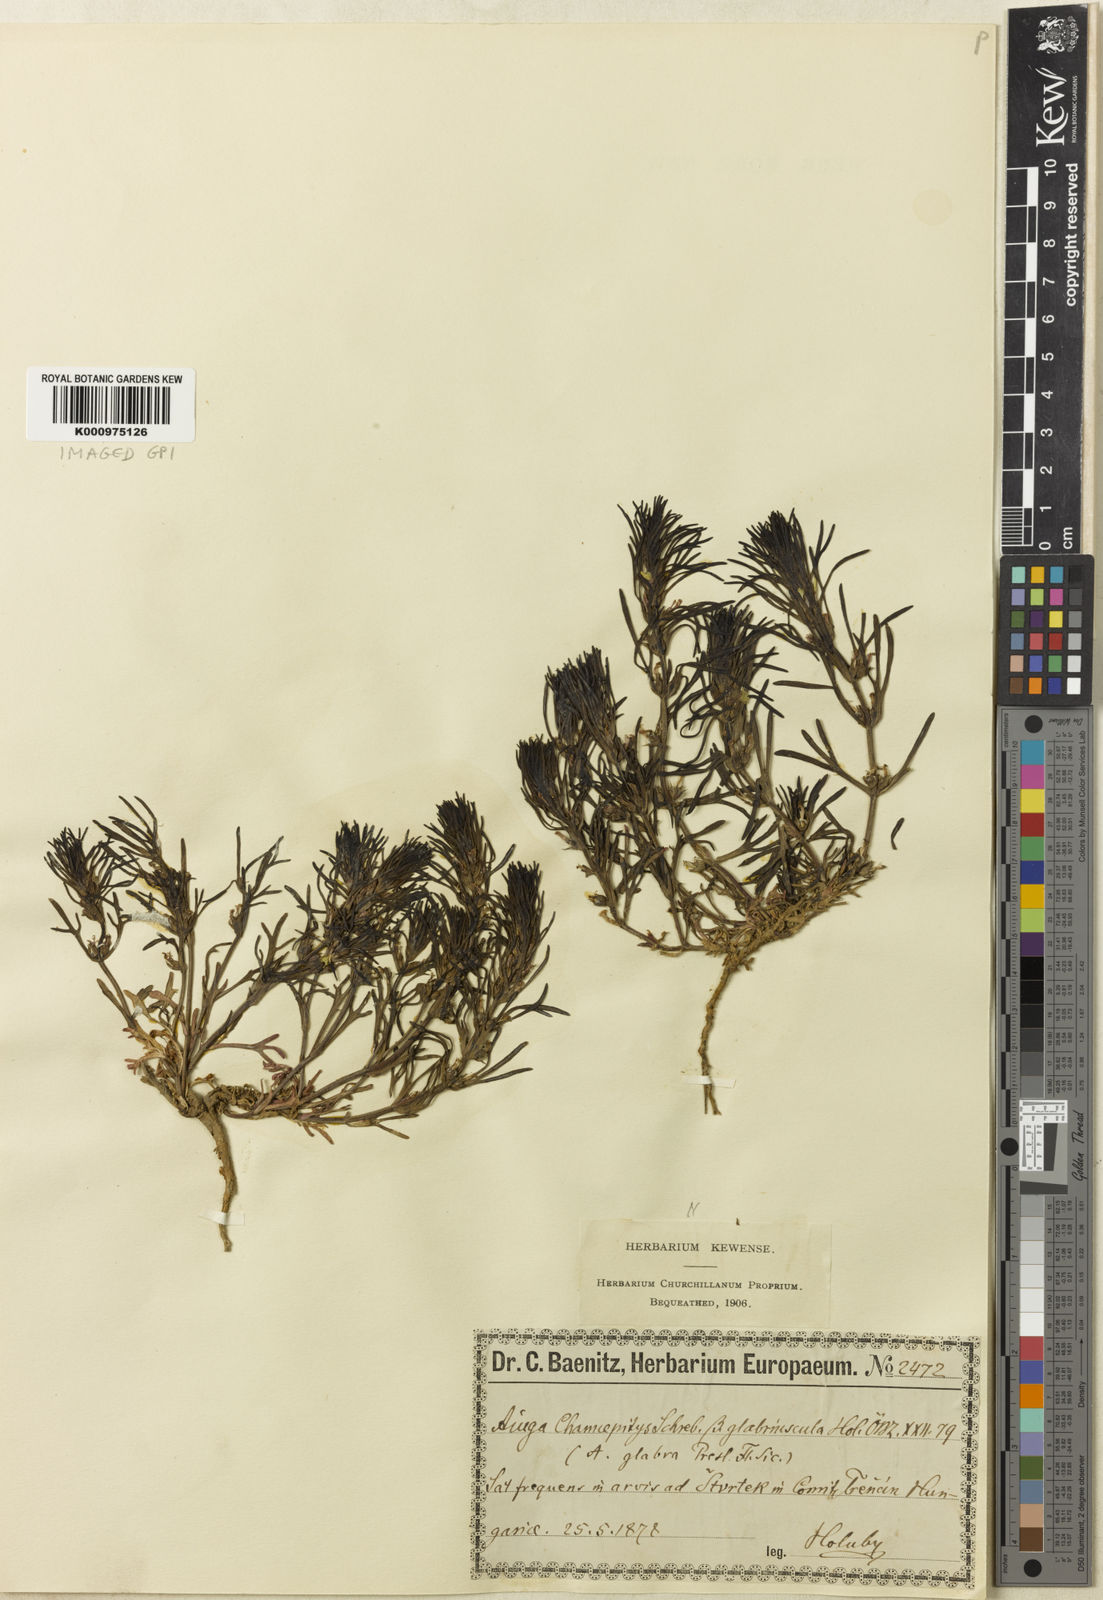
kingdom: Plantae
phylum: Tracheophyta
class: Magnoliopsida
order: Lamiales
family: Lamiaceae
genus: Ajuga
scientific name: Ajuga chamaepitys
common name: Ground-pine
